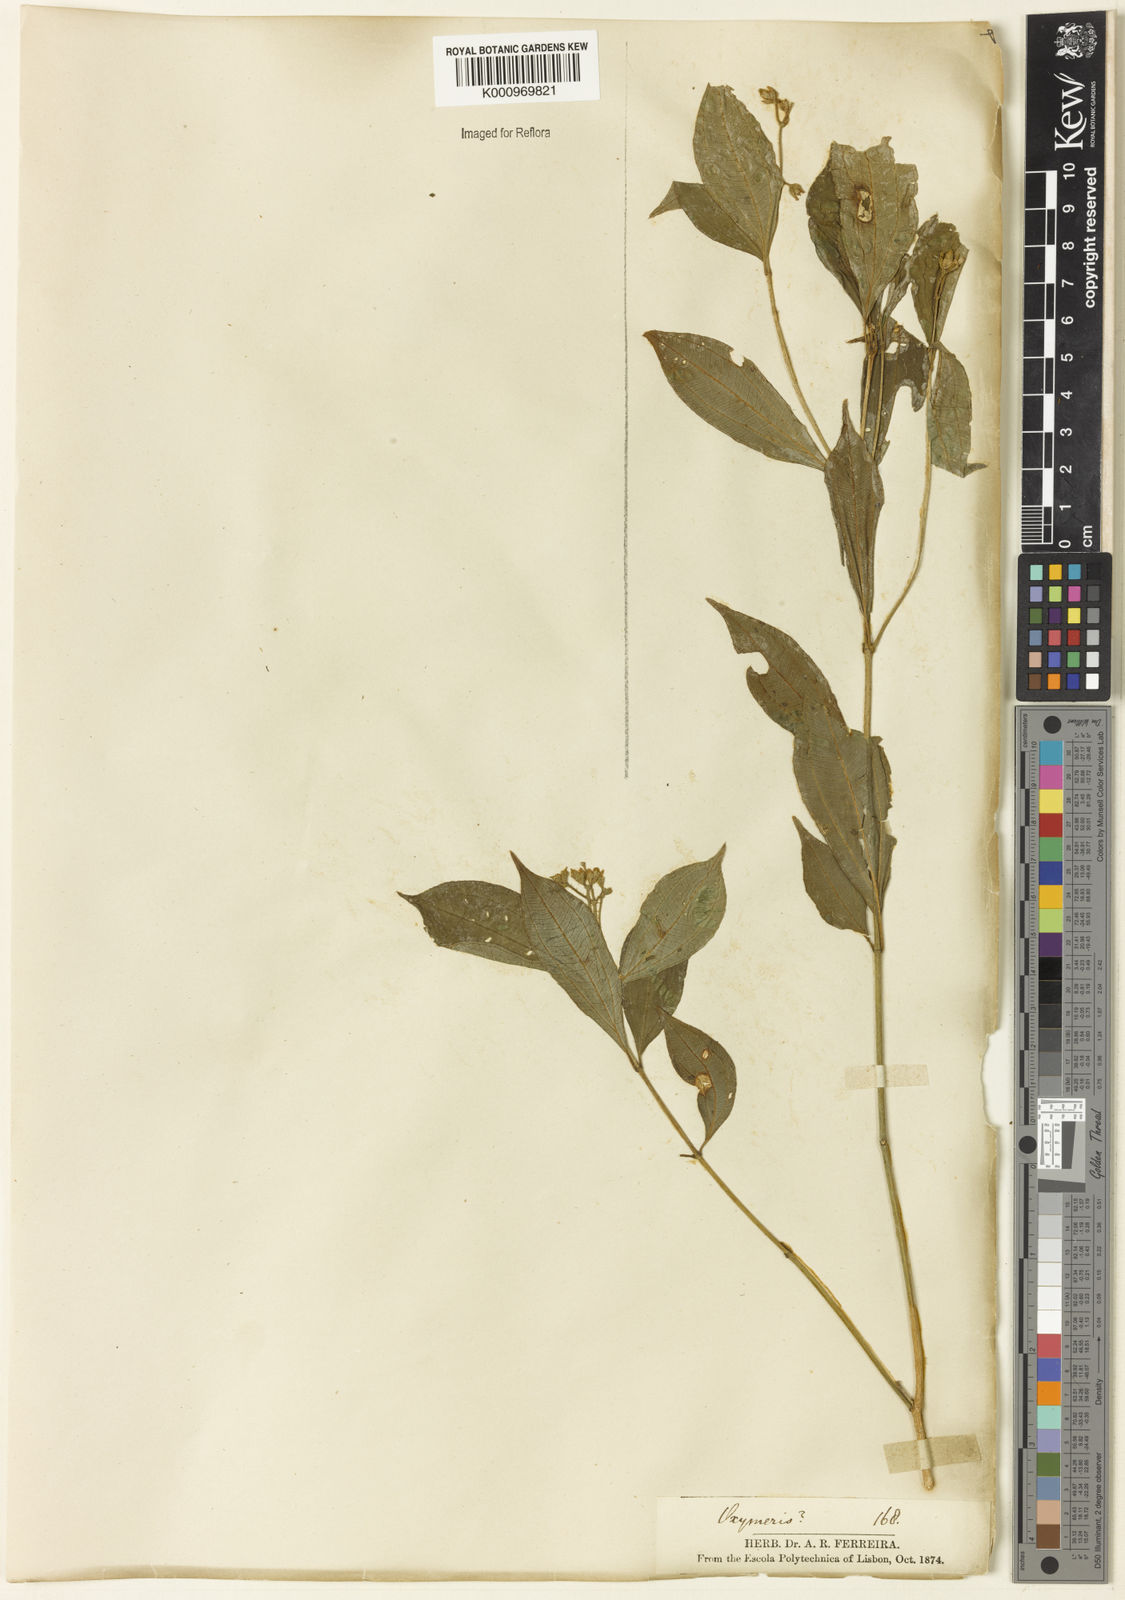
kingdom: Plantae
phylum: Tracheophyta
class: Magnoliopsida
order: Myrtales
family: Melastomataceae
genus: Miconia
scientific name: Miconia
